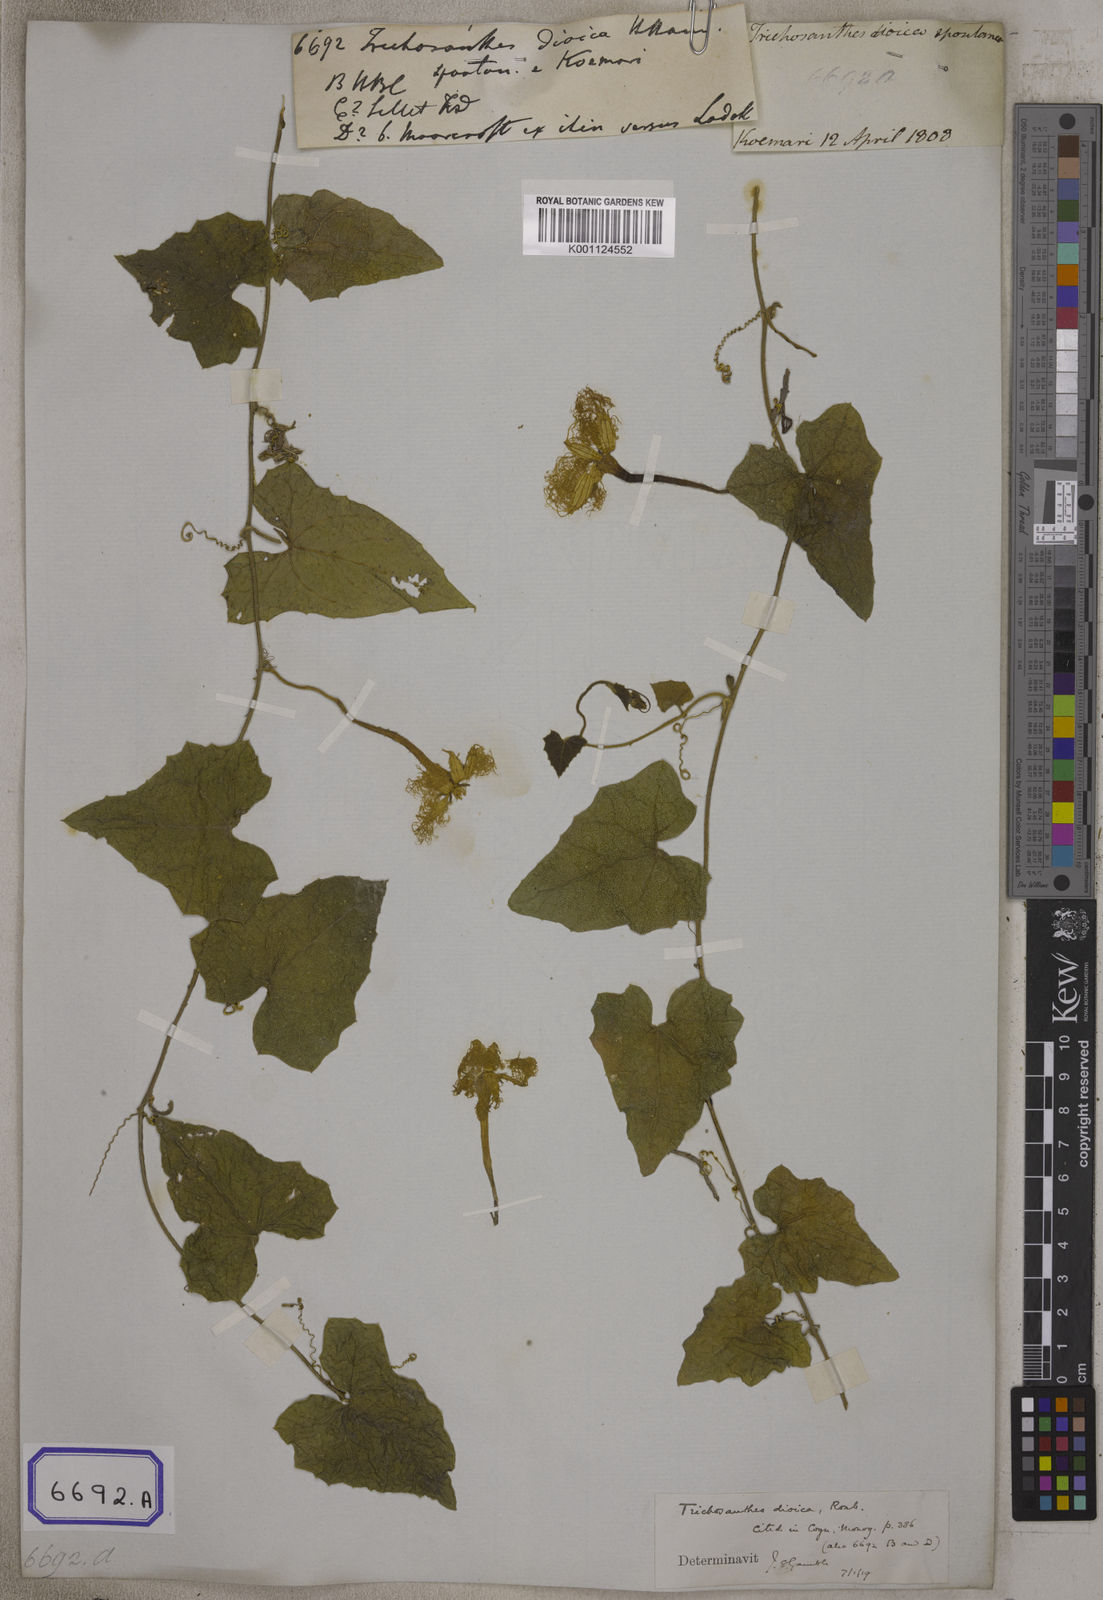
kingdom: Plantae
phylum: Tracheophyta
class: Magnoliopsida
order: Cucurbitales
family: Cucurbitaceae
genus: Trichosanthes
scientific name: Trichosanthes
